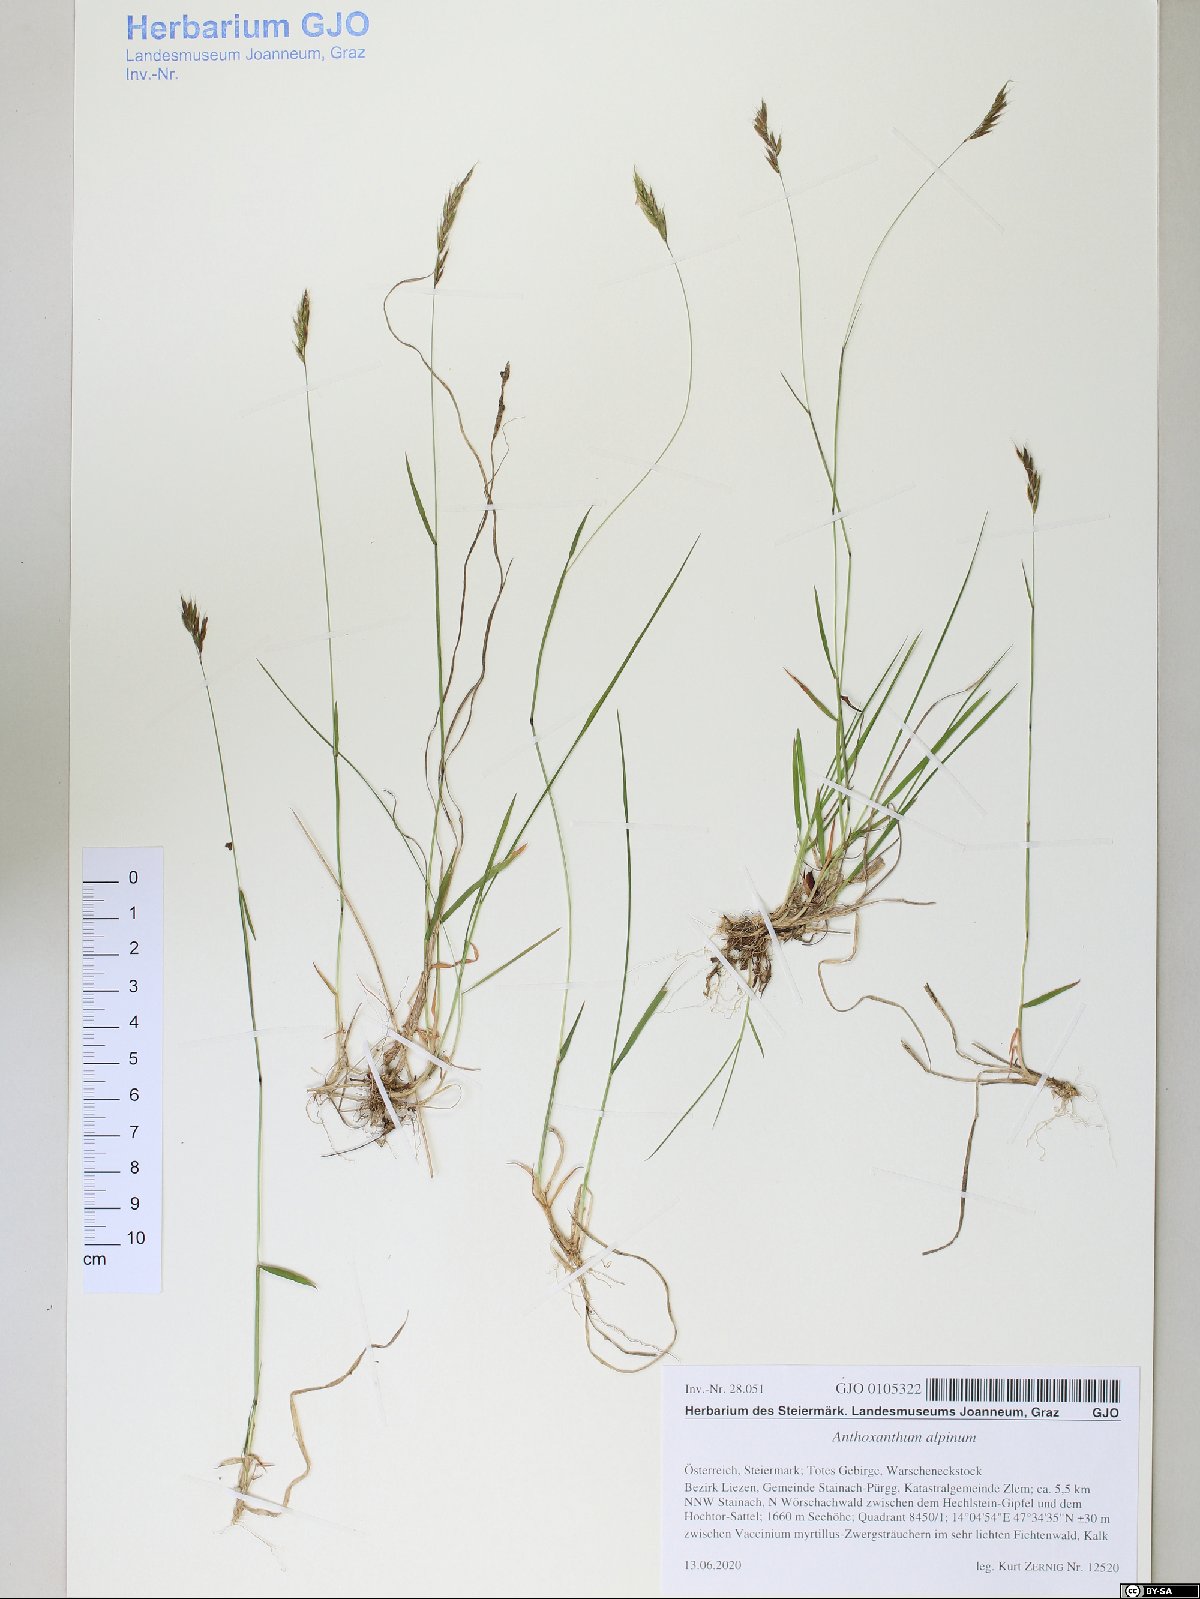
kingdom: Plantae
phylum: Tracheophyta
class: Liliopsida
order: Poales
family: Poaceae
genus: Anthoxanthum
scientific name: Anthoxanthum nipponicum
